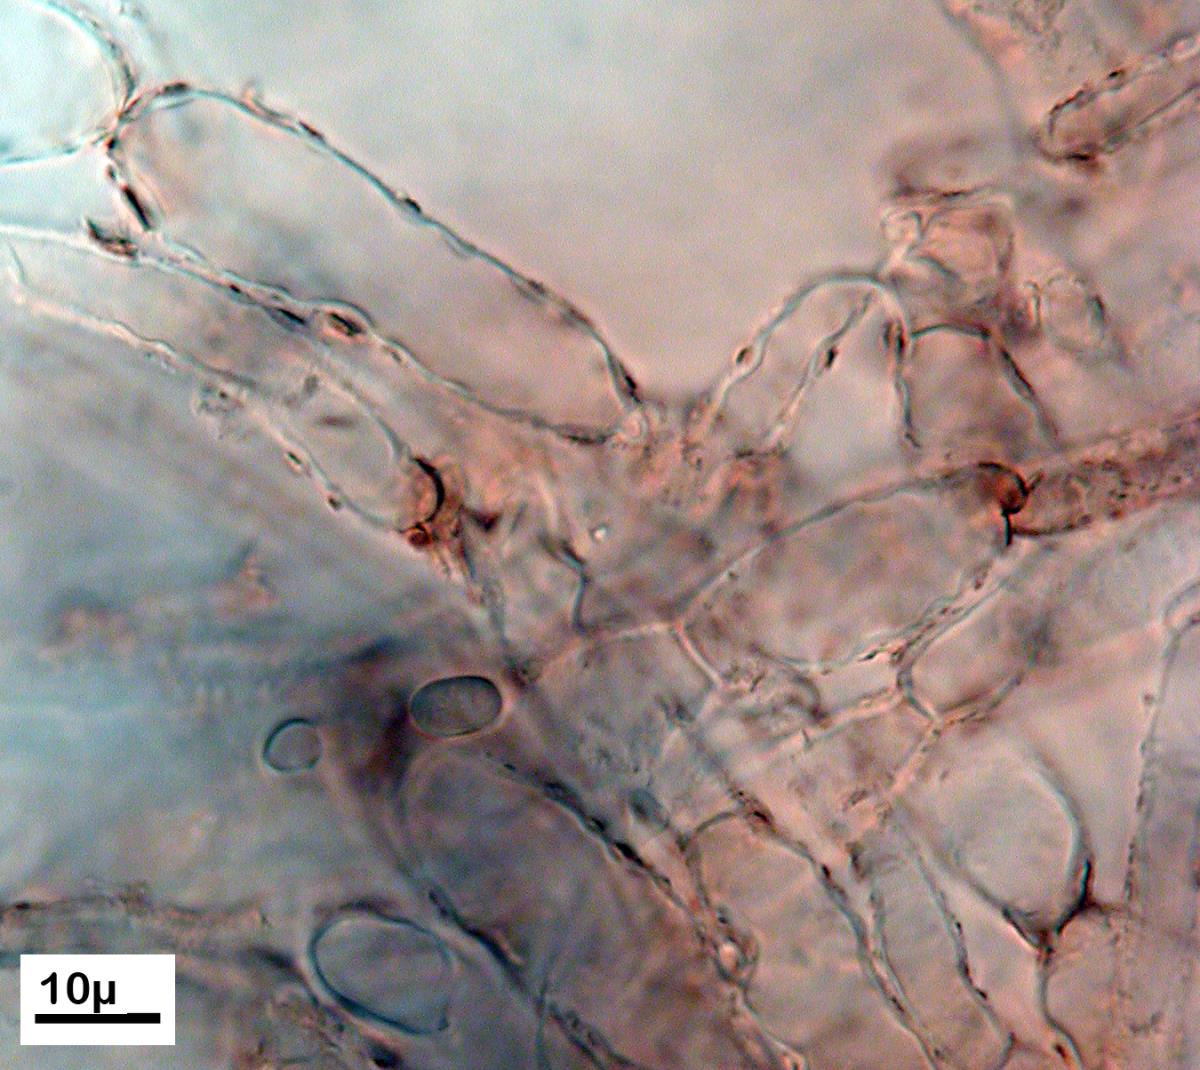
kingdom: Fungi
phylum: Basidiomycota
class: Agaricomycetes
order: Agaricales
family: Strophariaceae
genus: Kuehneromyces
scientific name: Kuehneromyces brunneoalbescens
